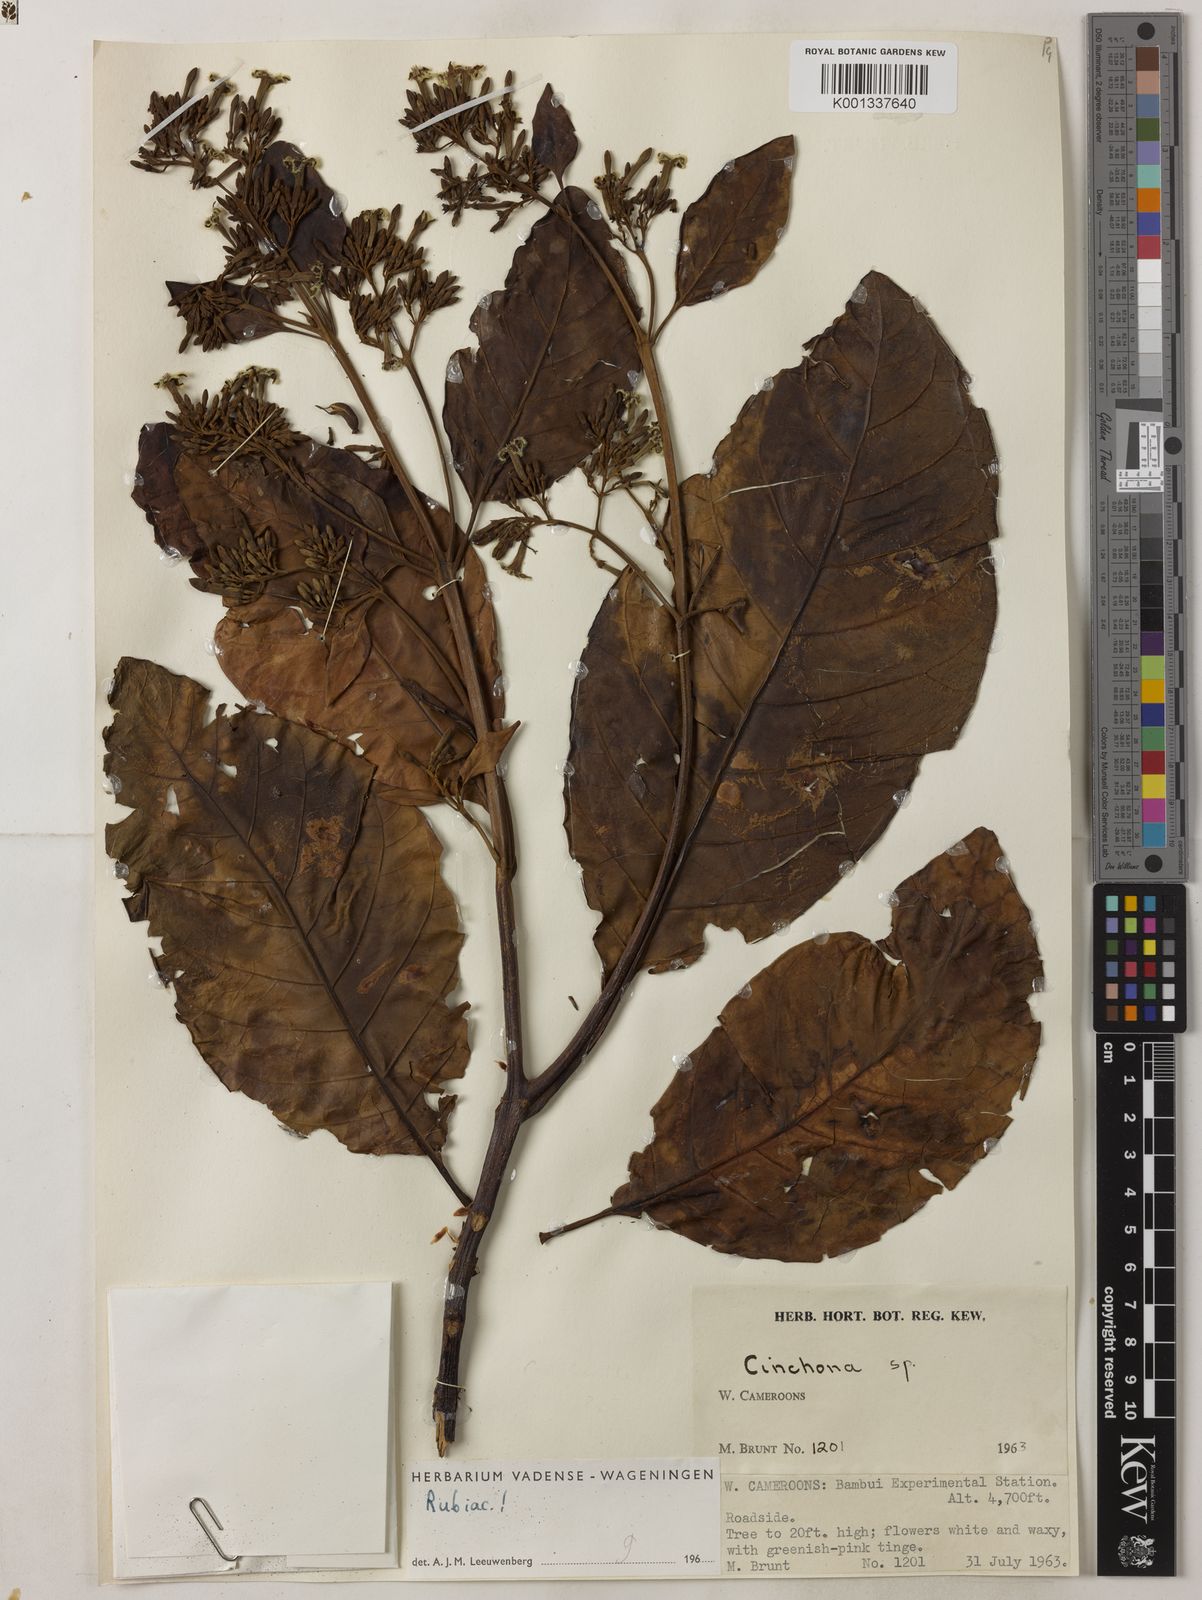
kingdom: Plantae
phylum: Tracheophyta
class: Magnoliopsida
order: Gentianales
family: Rubiaceae
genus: Cinchona
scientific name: Cinchona
